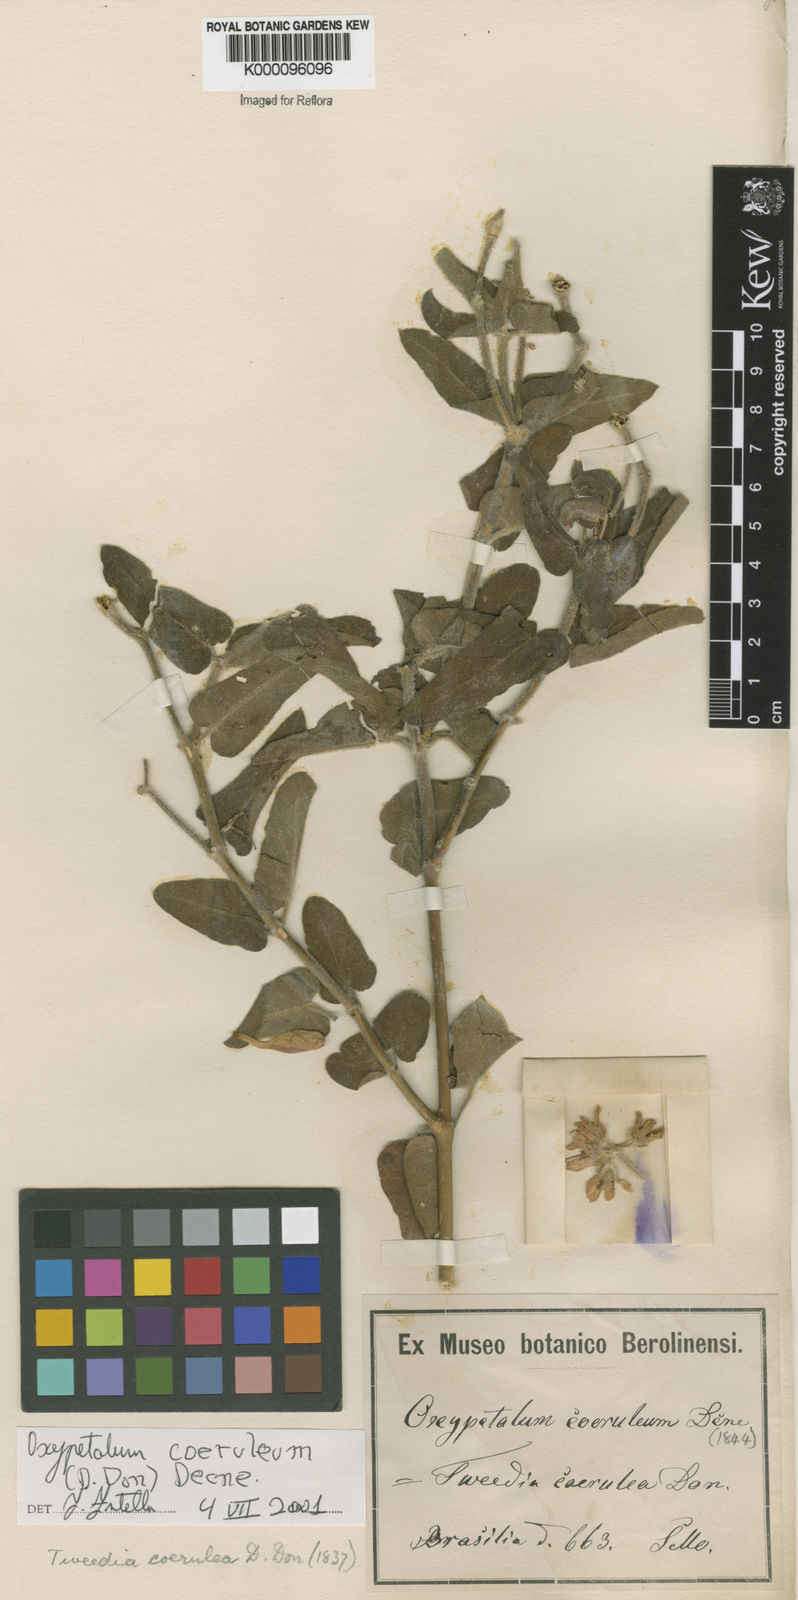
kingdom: Plantae
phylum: Tracheophyta
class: Magnoliopsida
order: Gentianales
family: Apocynaceae
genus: Oxypetalum
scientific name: Oxypetalum coeruleum
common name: Southern star
